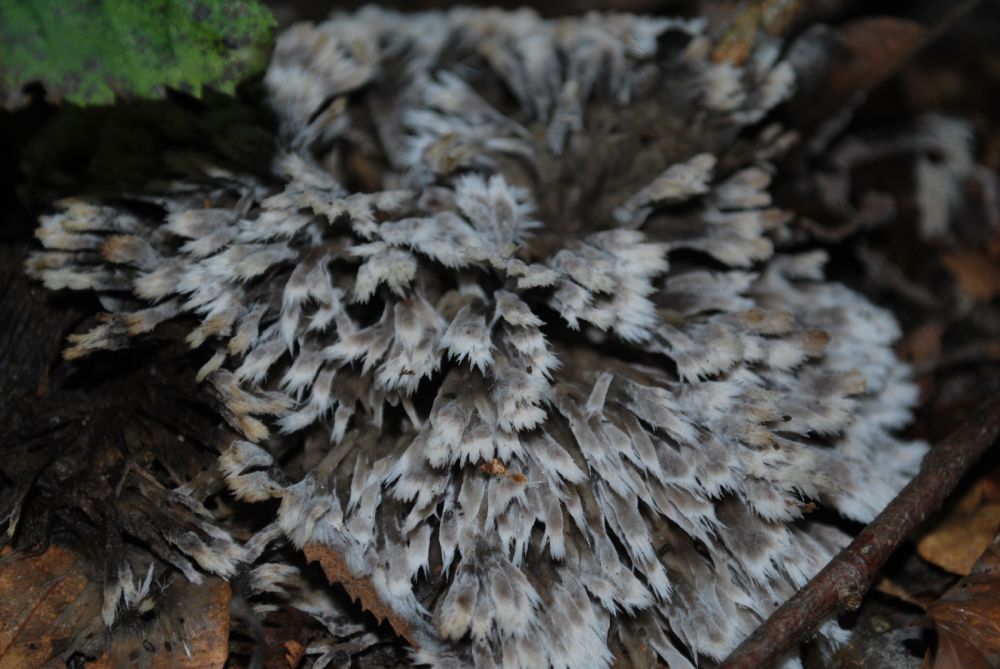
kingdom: Fungi
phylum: Basidiomycota
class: Agaricomycetes
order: Thelephorales
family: Thelephoraceae
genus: Thelephora
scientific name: Thelephora penicillata
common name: fladtrådt frynsesvamp
